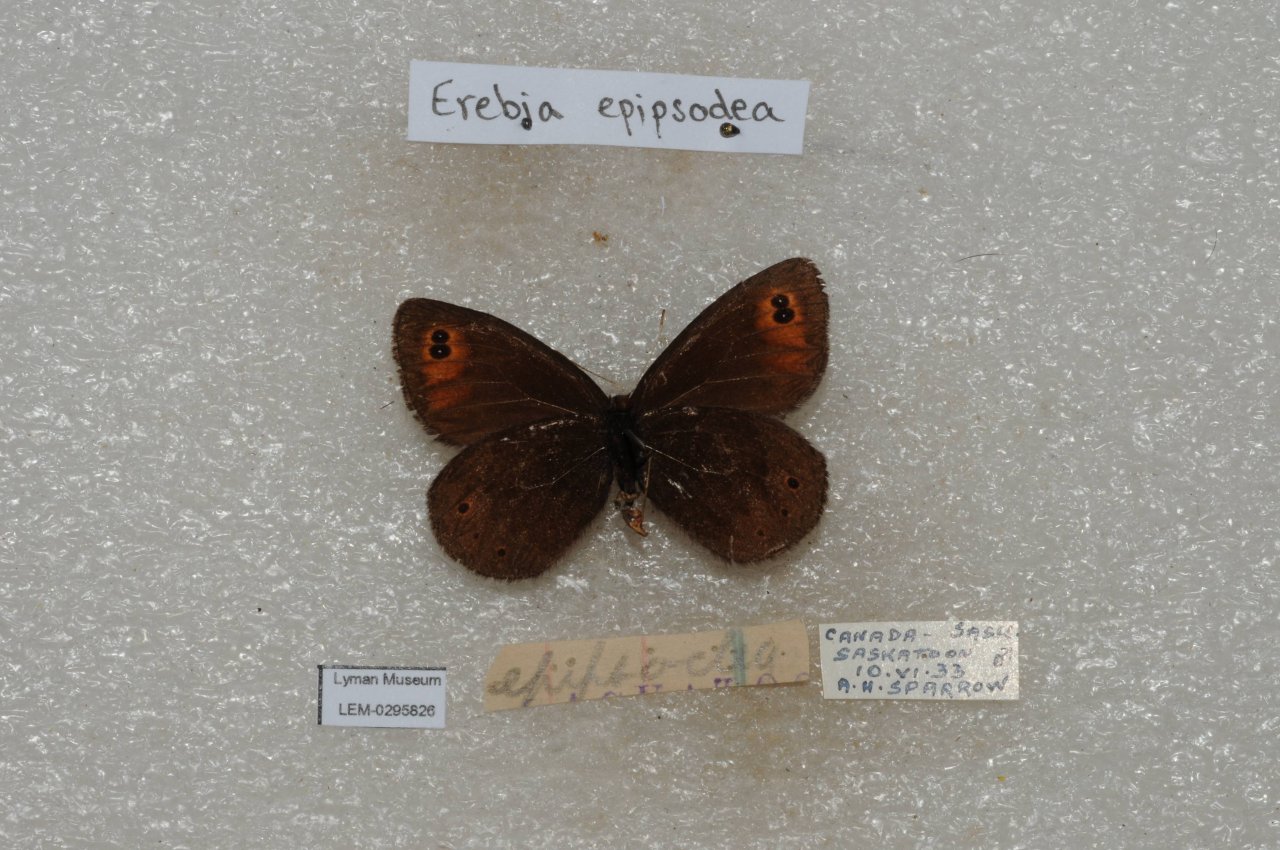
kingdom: Animalia
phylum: Arthropoda
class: Insecta
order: Lepidoptera
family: Nymphalidae
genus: Erebia
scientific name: Erebia epipsodea
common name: Common Alpine
